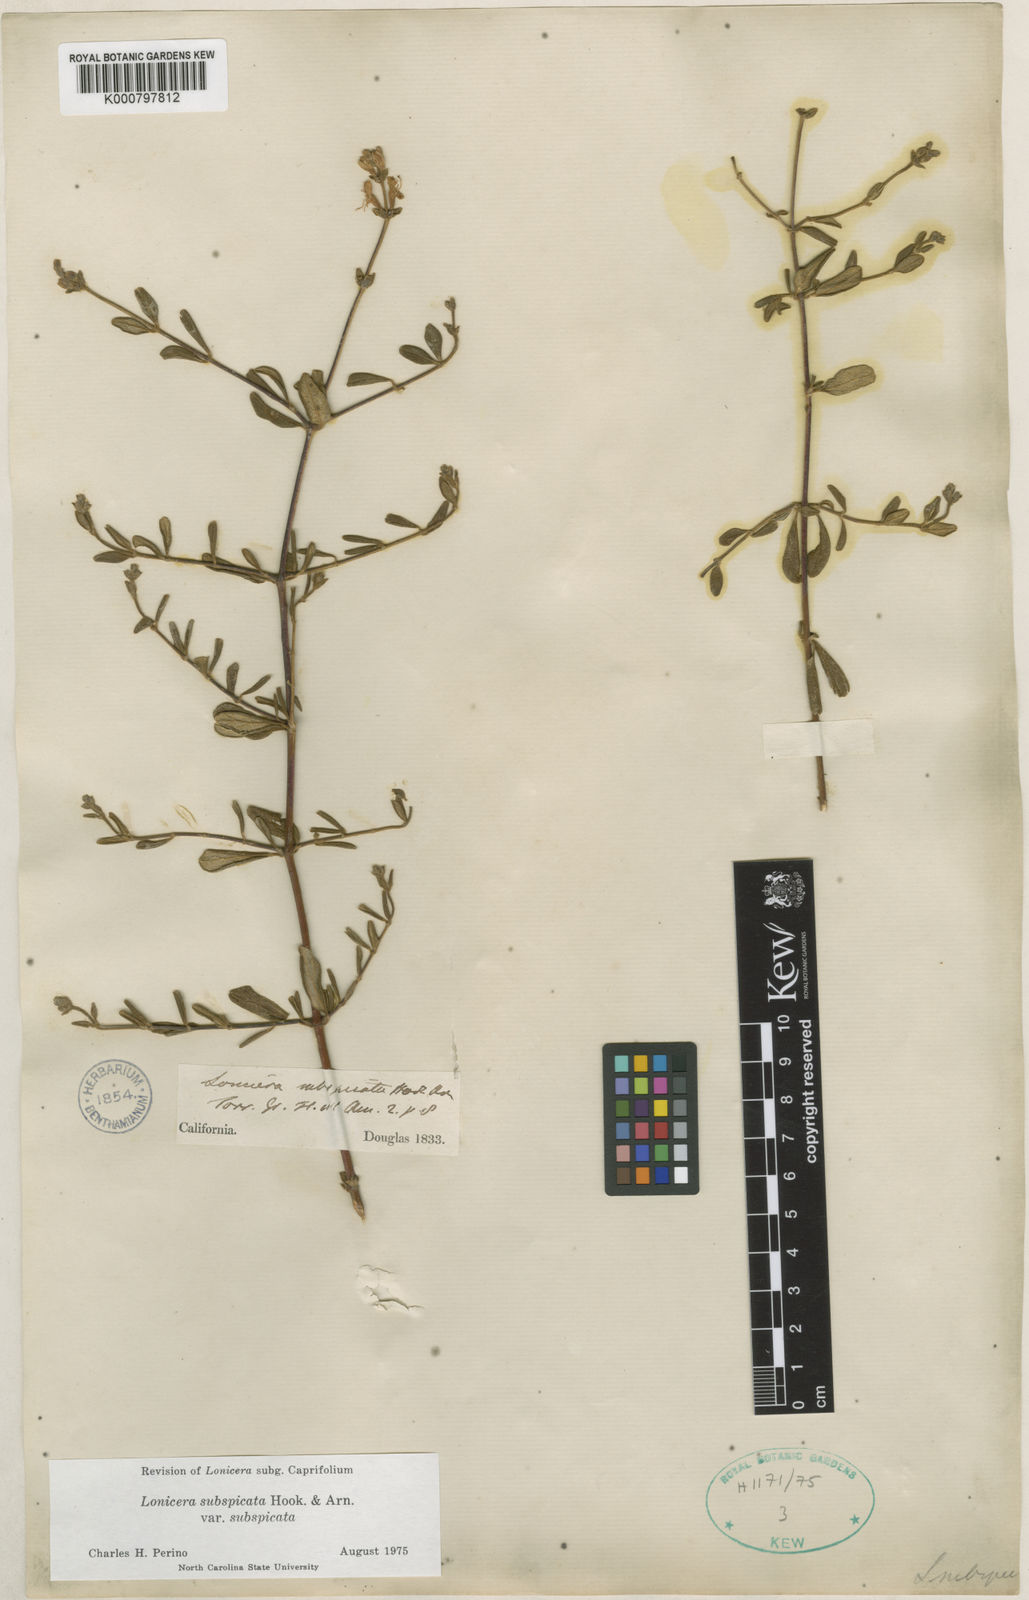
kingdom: Plantae
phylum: Tracheophyta
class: Magnoliopsida
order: Dipsacales
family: Caprifoliaceae
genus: Lonicera
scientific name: Lonicera subspicata
